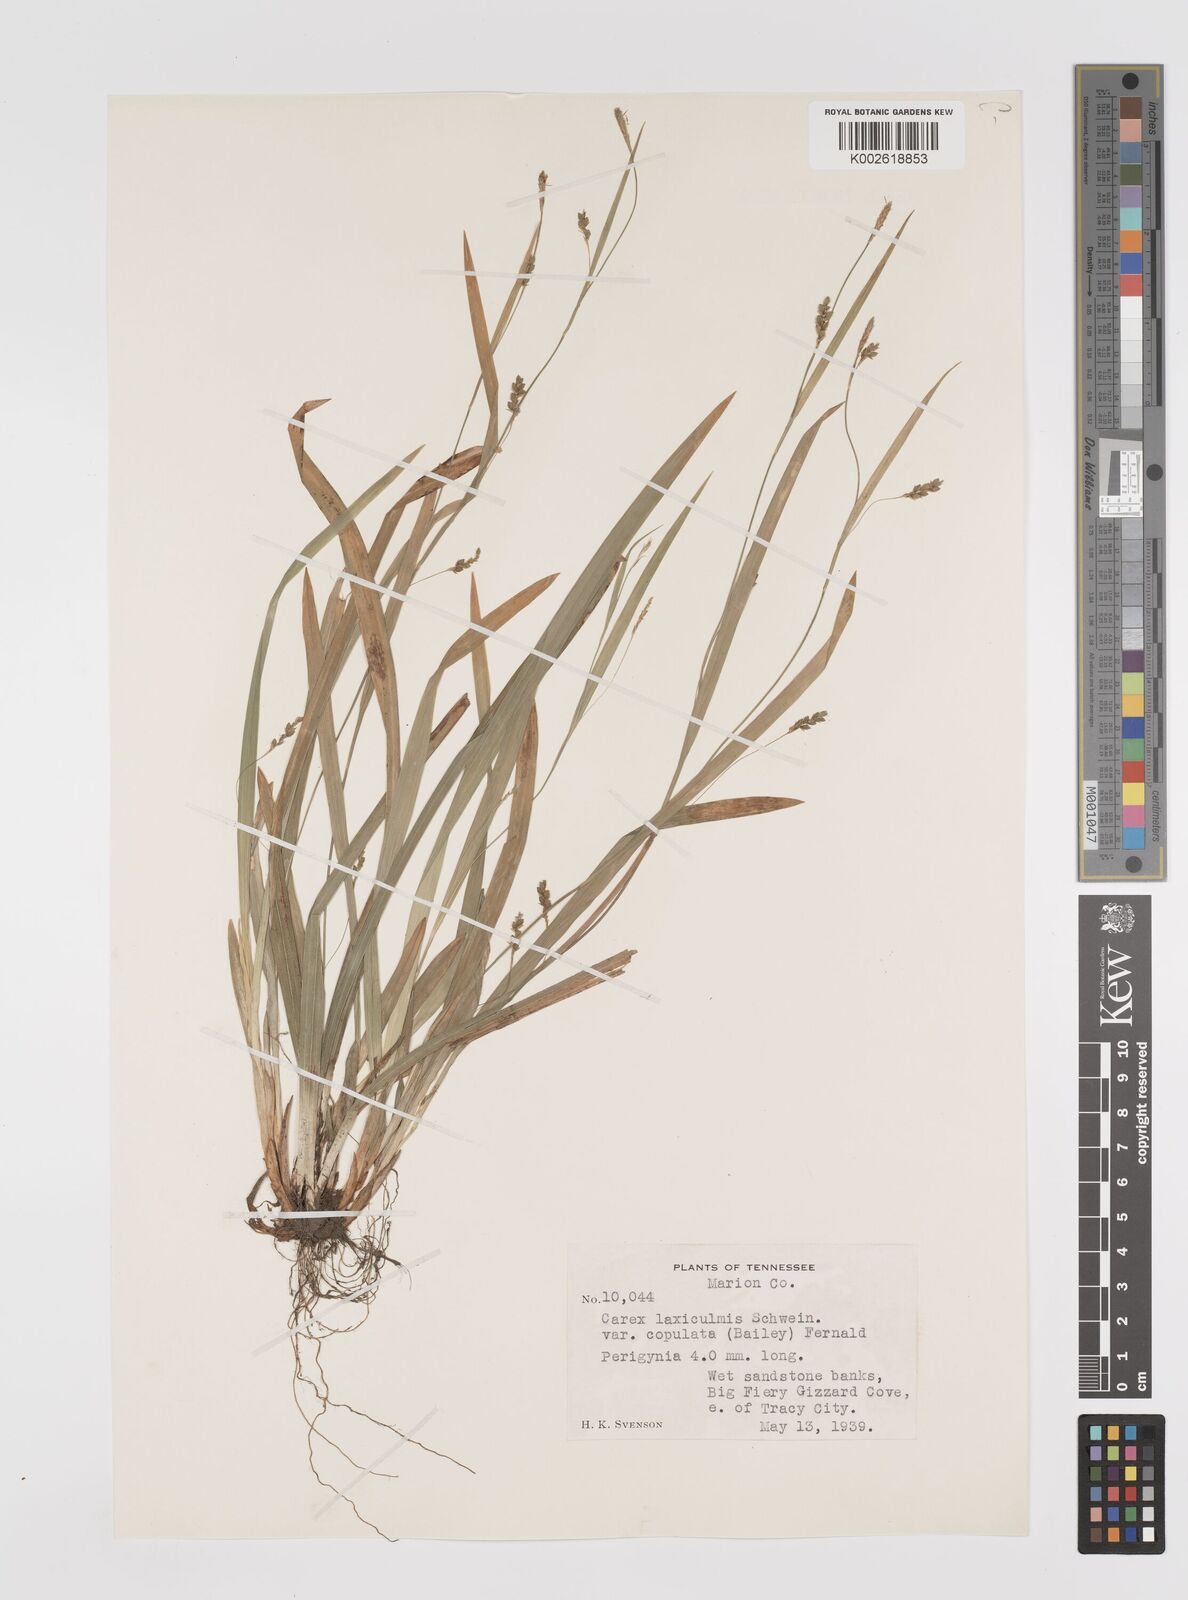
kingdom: Plantae
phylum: Tracheophyta
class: Liliopsida
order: Poales
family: Cyperaceae
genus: Carex
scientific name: Carex laxiculmis
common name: Spreading sedge
